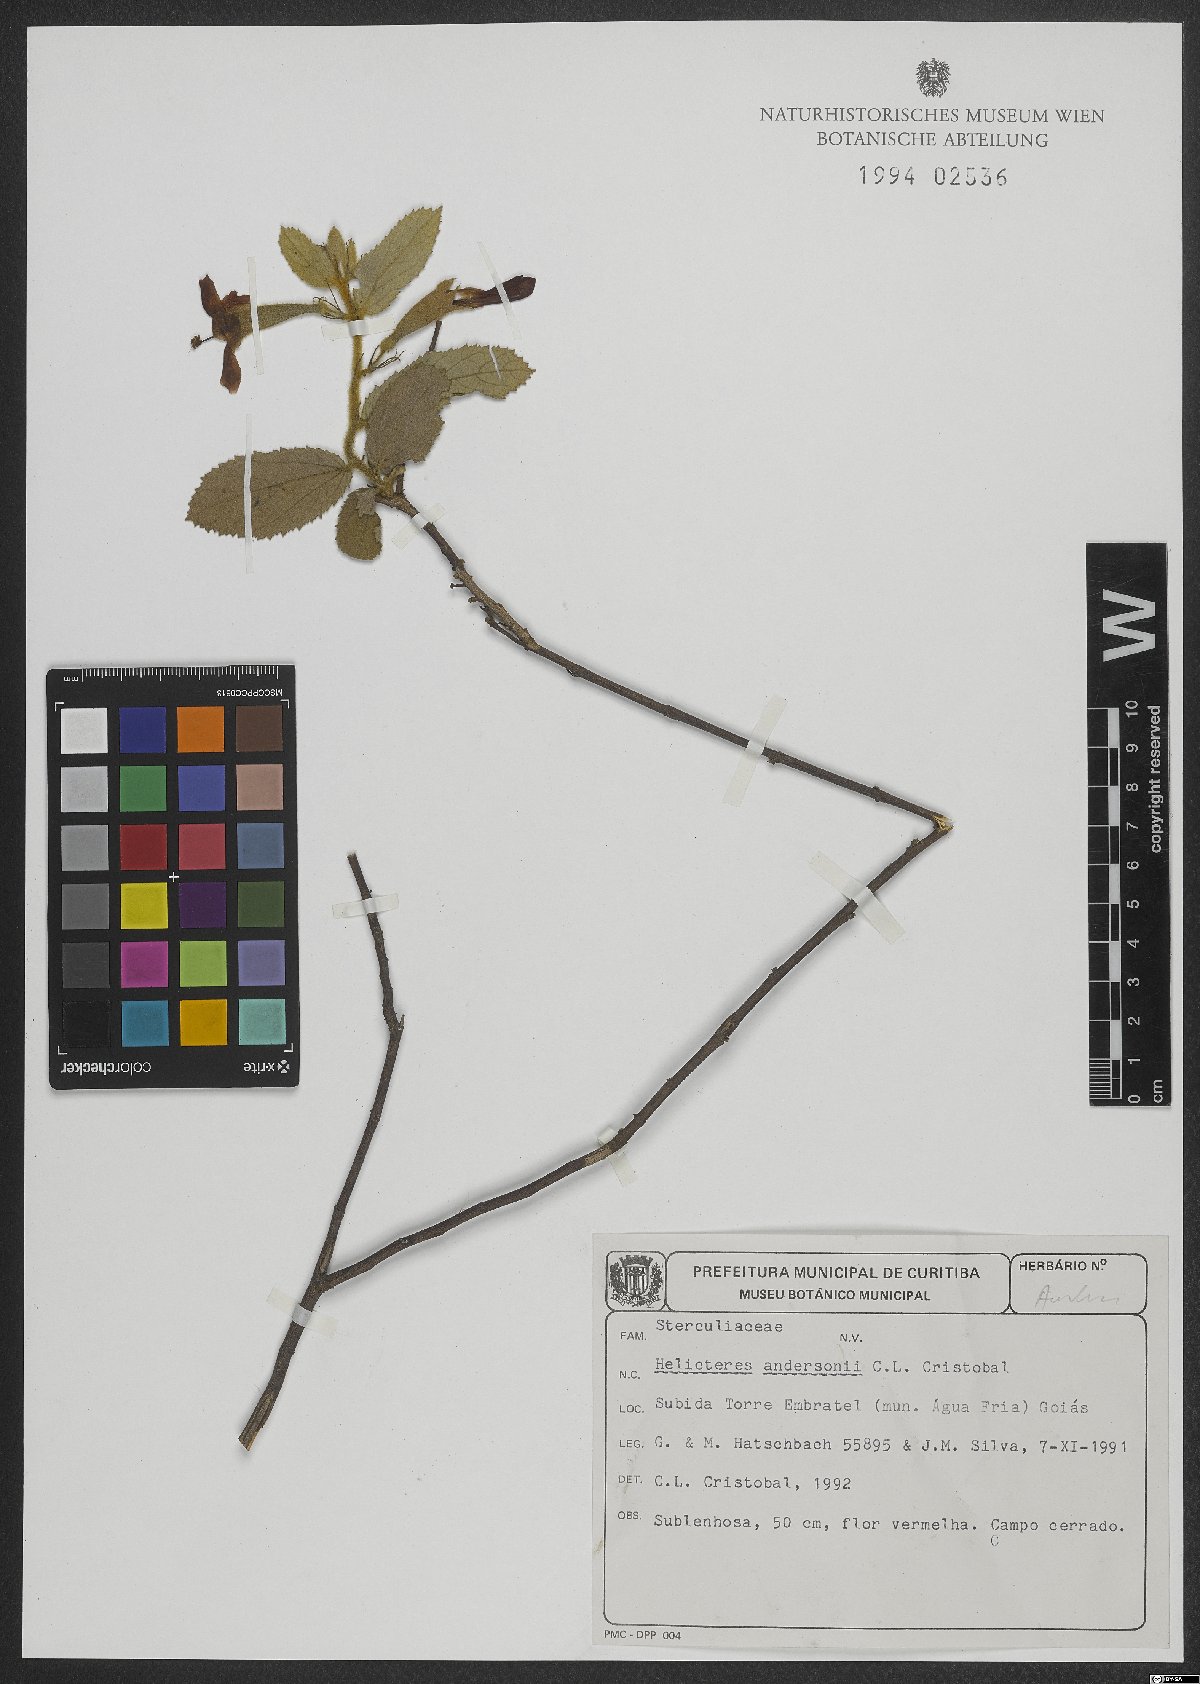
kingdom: Plantae
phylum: Tracheophyta
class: Magnoliopsida
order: Malvales
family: Malvaceae
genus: Helicteres
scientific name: Helicteres andersonii
